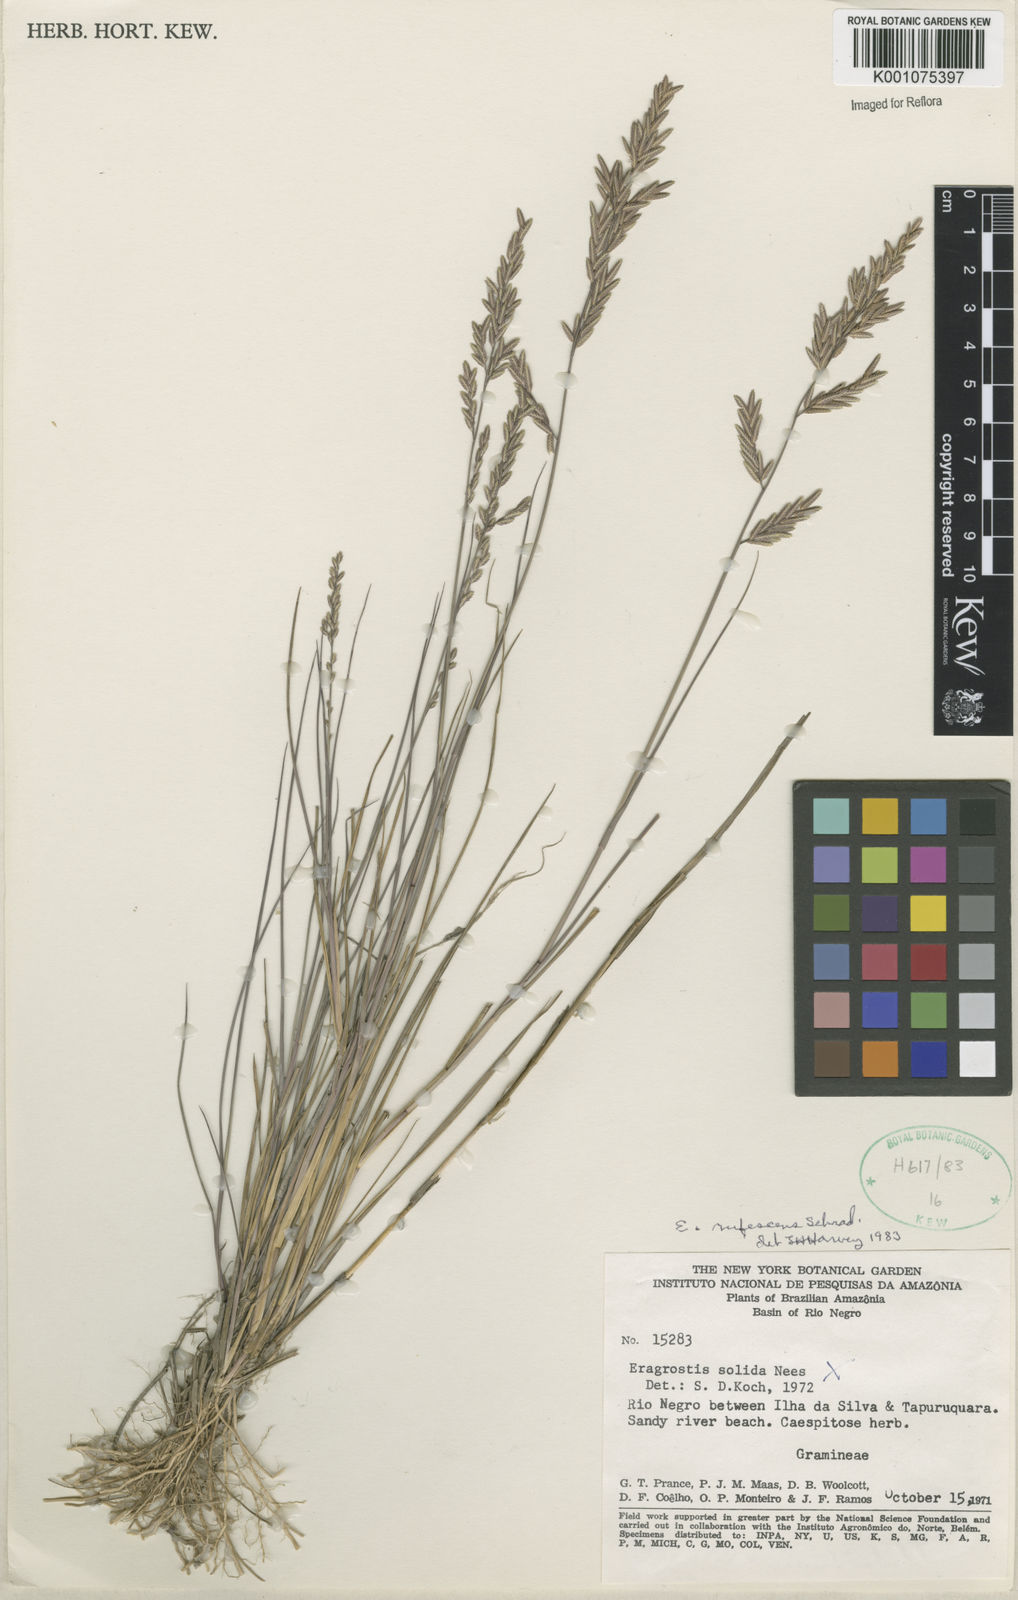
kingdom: Plantae
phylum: Tracheophyta
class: Liliopsida
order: Poales
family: Poaceae
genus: Eragrostis
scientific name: Eragrostis rufescens
